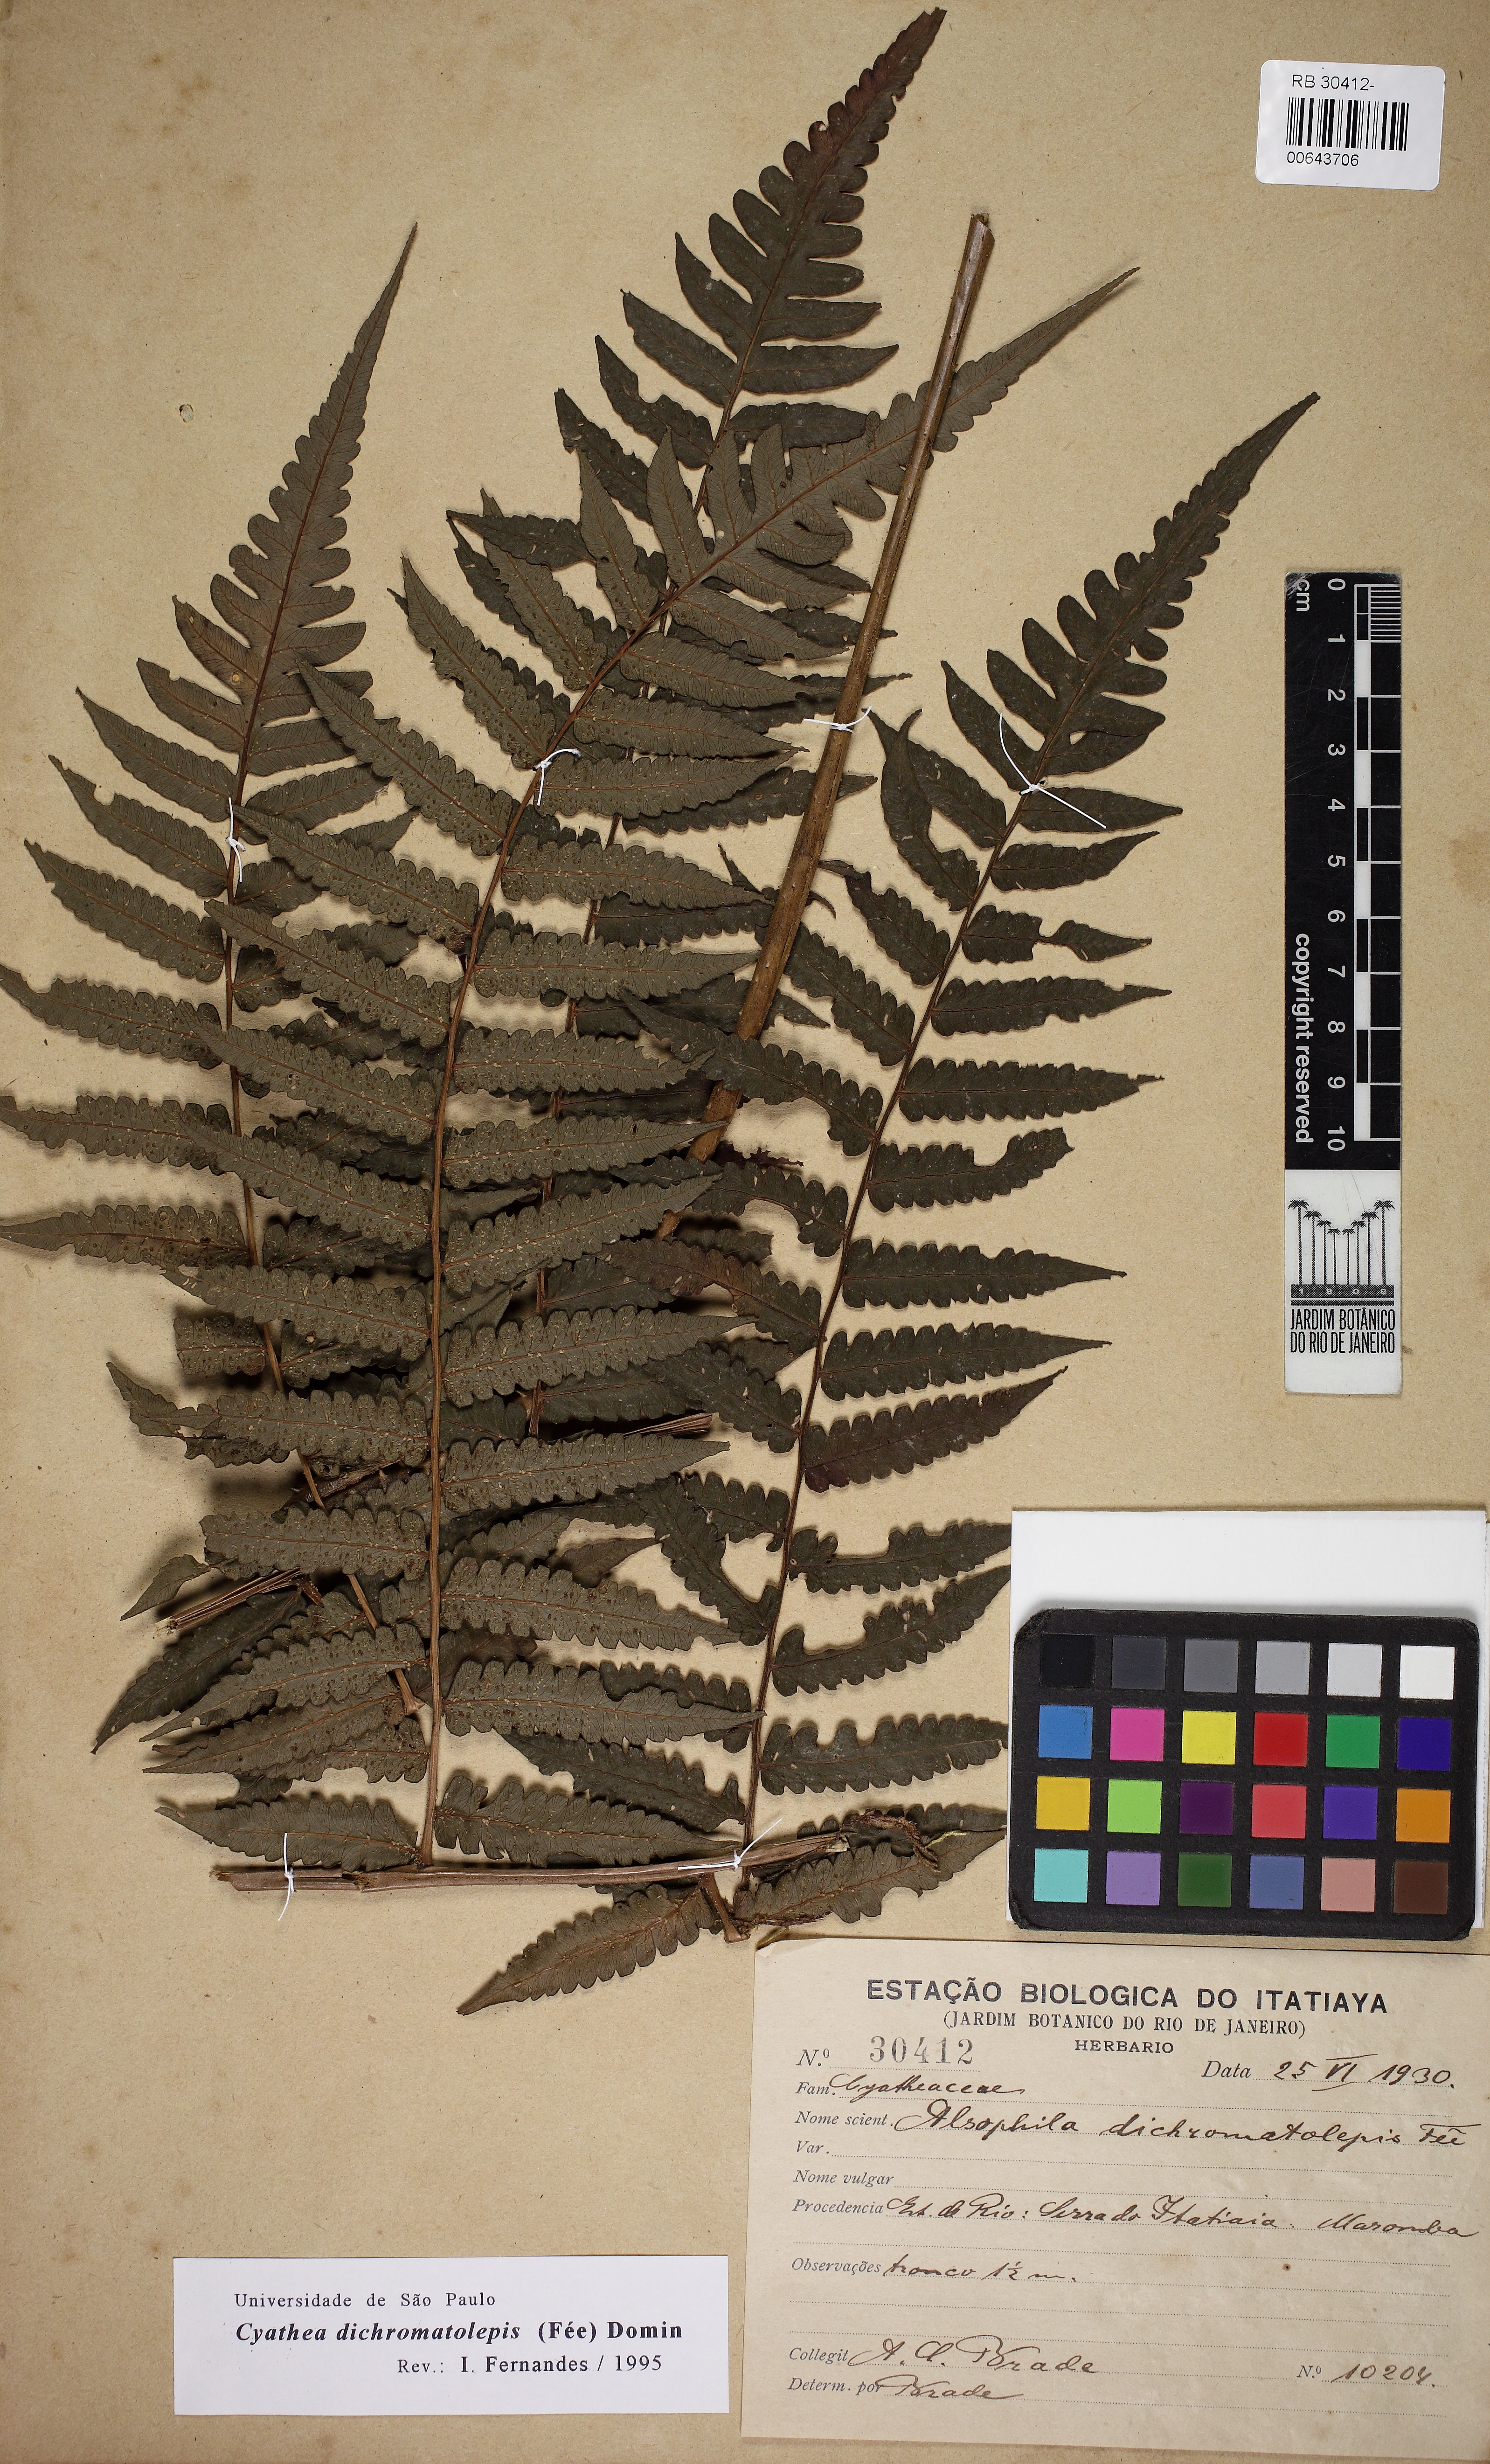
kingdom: Plantae
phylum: Tracheophyta
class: Polypodiopsida
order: Cyatheales
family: Cyatheaceae
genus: Cyathea
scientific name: Cyathea dichromatolepis
